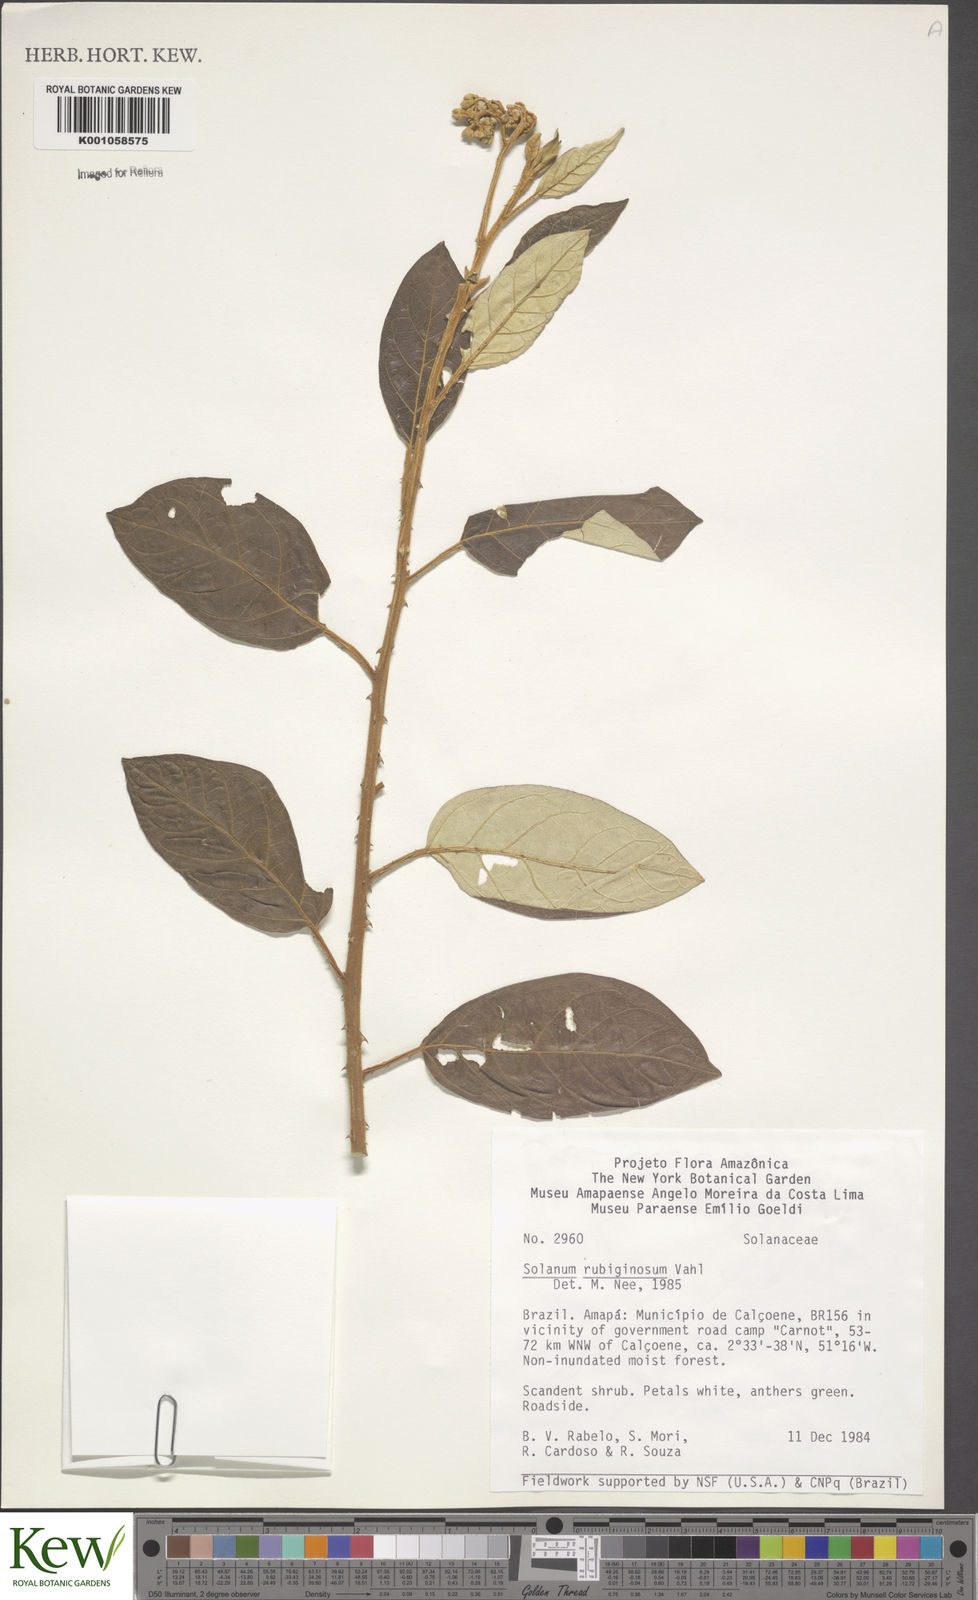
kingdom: Plantae
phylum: Tracheophyta
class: Magnoliopsida
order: Solanales
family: Solanaceae
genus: Solanum
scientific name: Solanum rubiginosum
